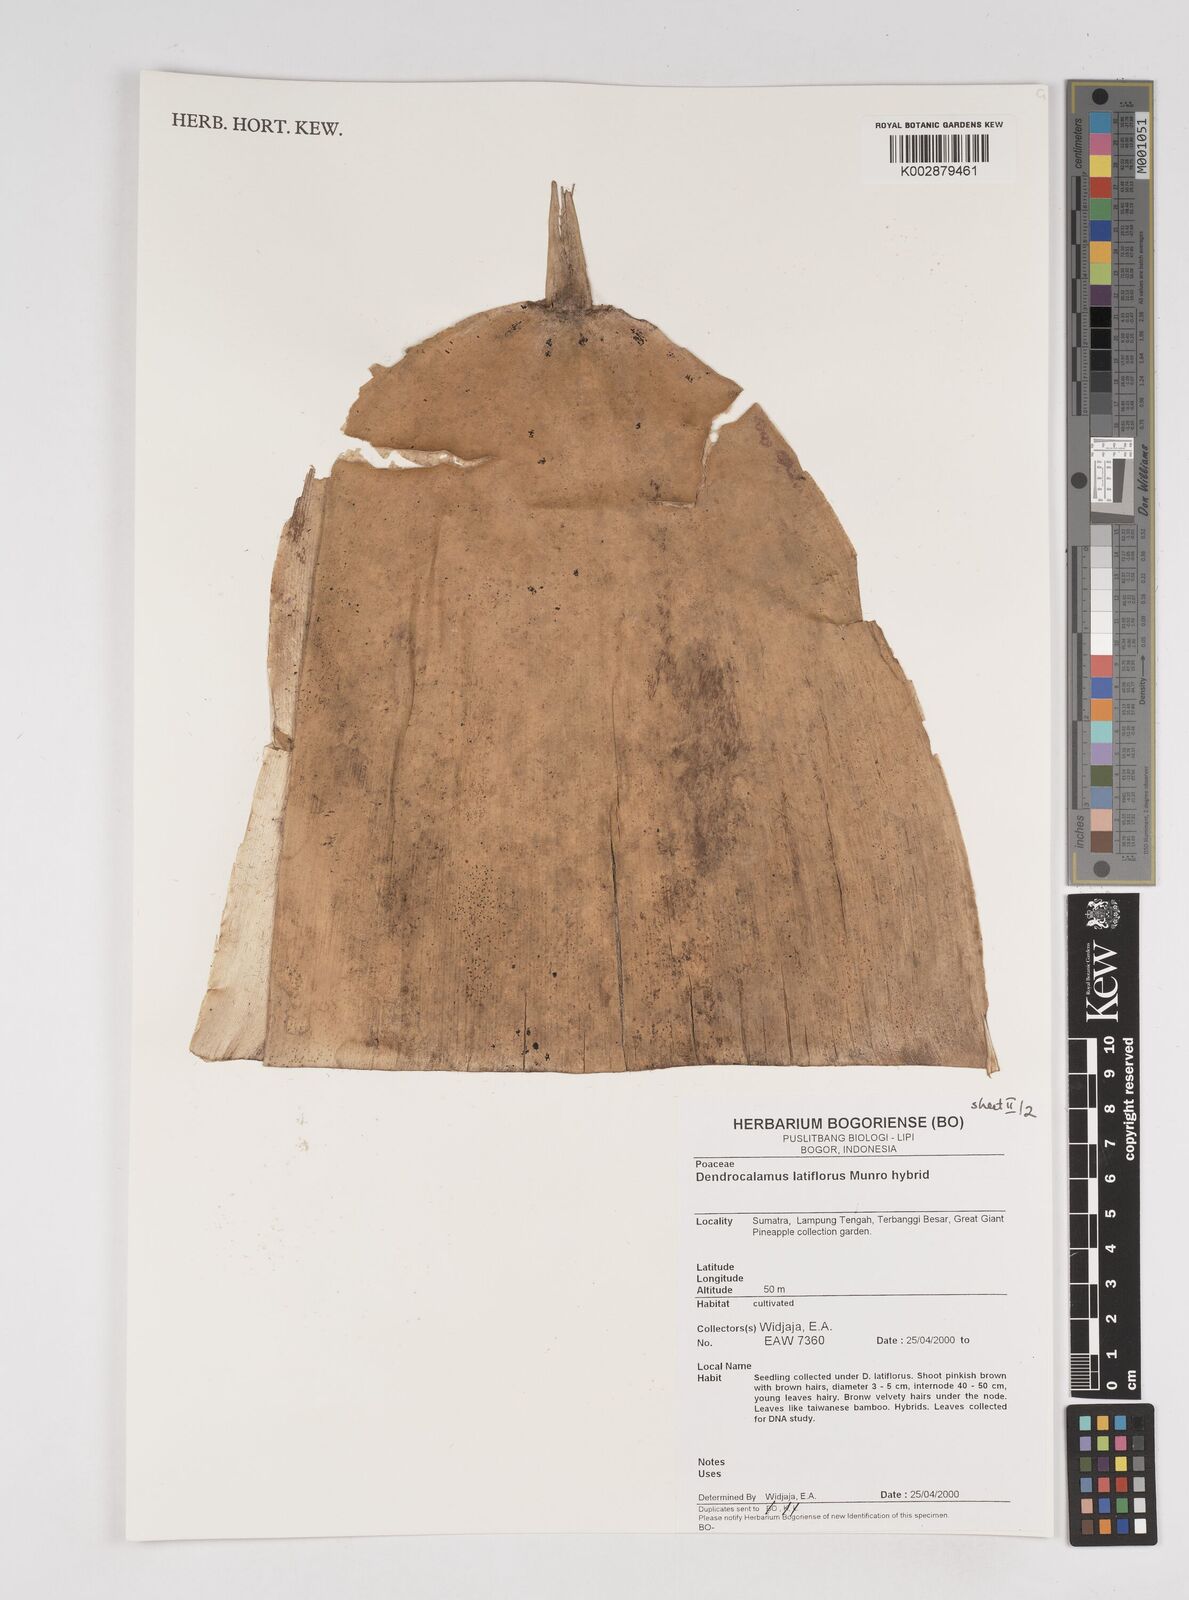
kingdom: Plantae
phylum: Tracheophyta
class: Liliopsida
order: Poales
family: Poaceae
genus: Dendrocalamus
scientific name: Dendrocalamus latiflorus
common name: Giant bamboo
